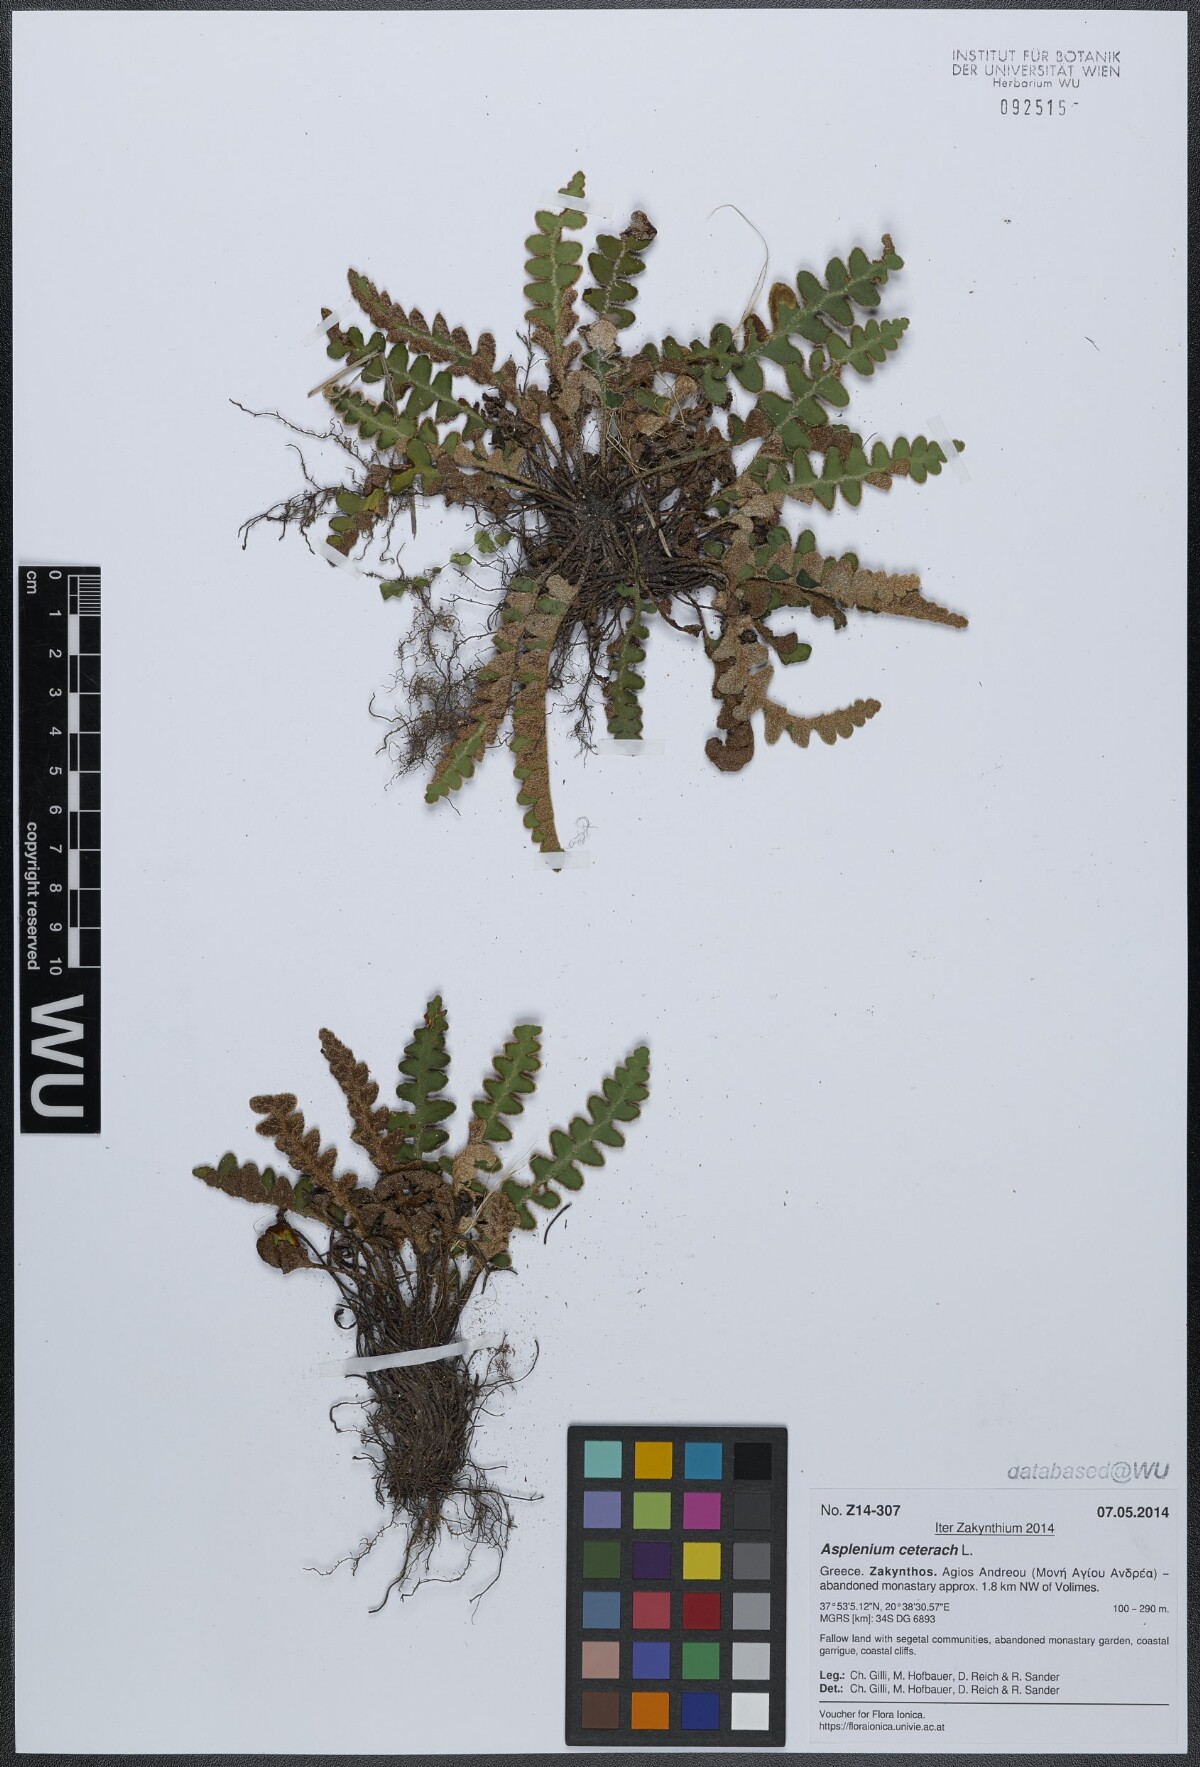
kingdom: Plantae
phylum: Tracheophyta
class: Polypodiopsida
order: Polypodiales
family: Aspleniaceae
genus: Asplenium
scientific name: Asplenium ceterach
